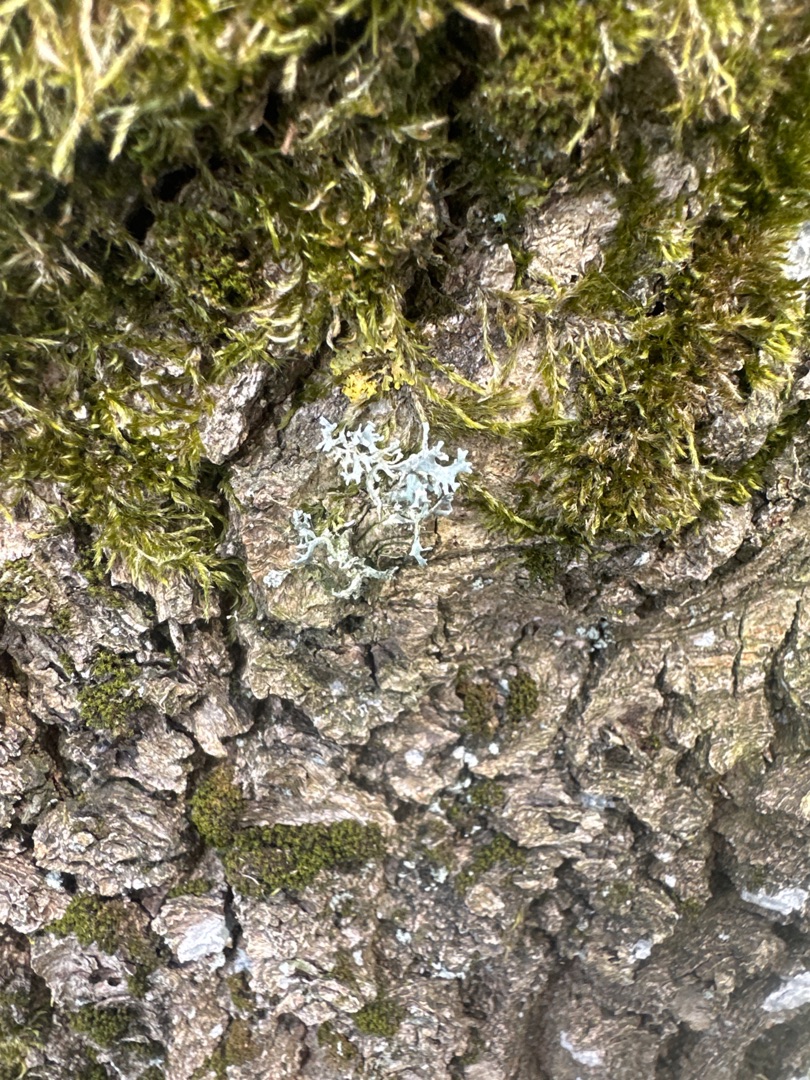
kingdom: Fungi
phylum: Ascomycota
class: Lecanoromycetes
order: Lecanorales
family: Parmeliaceae
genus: Evernia
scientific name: Evernia prunastri
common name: Almindelig slåenlav
